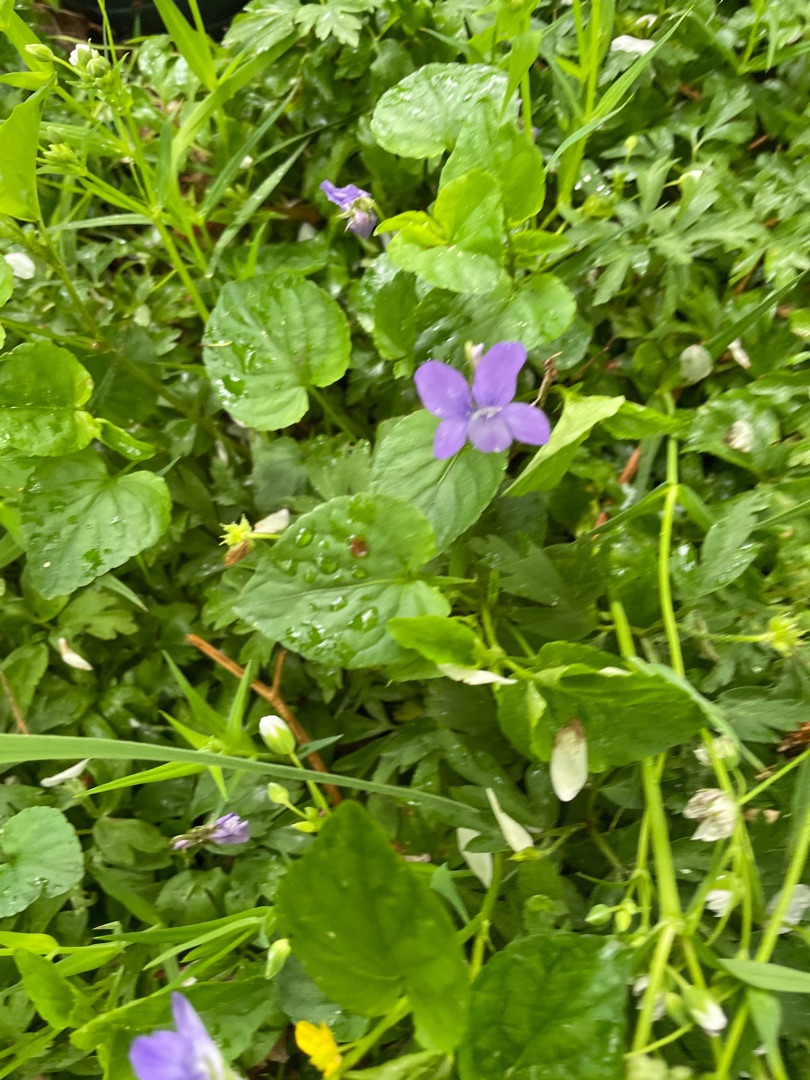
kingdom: Plantae
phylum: Tracheophyta
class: Magnoliopsida
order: Malpighiales
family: Violaceae
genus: Viola
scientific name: Viola riviniana
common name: Krat-viol
